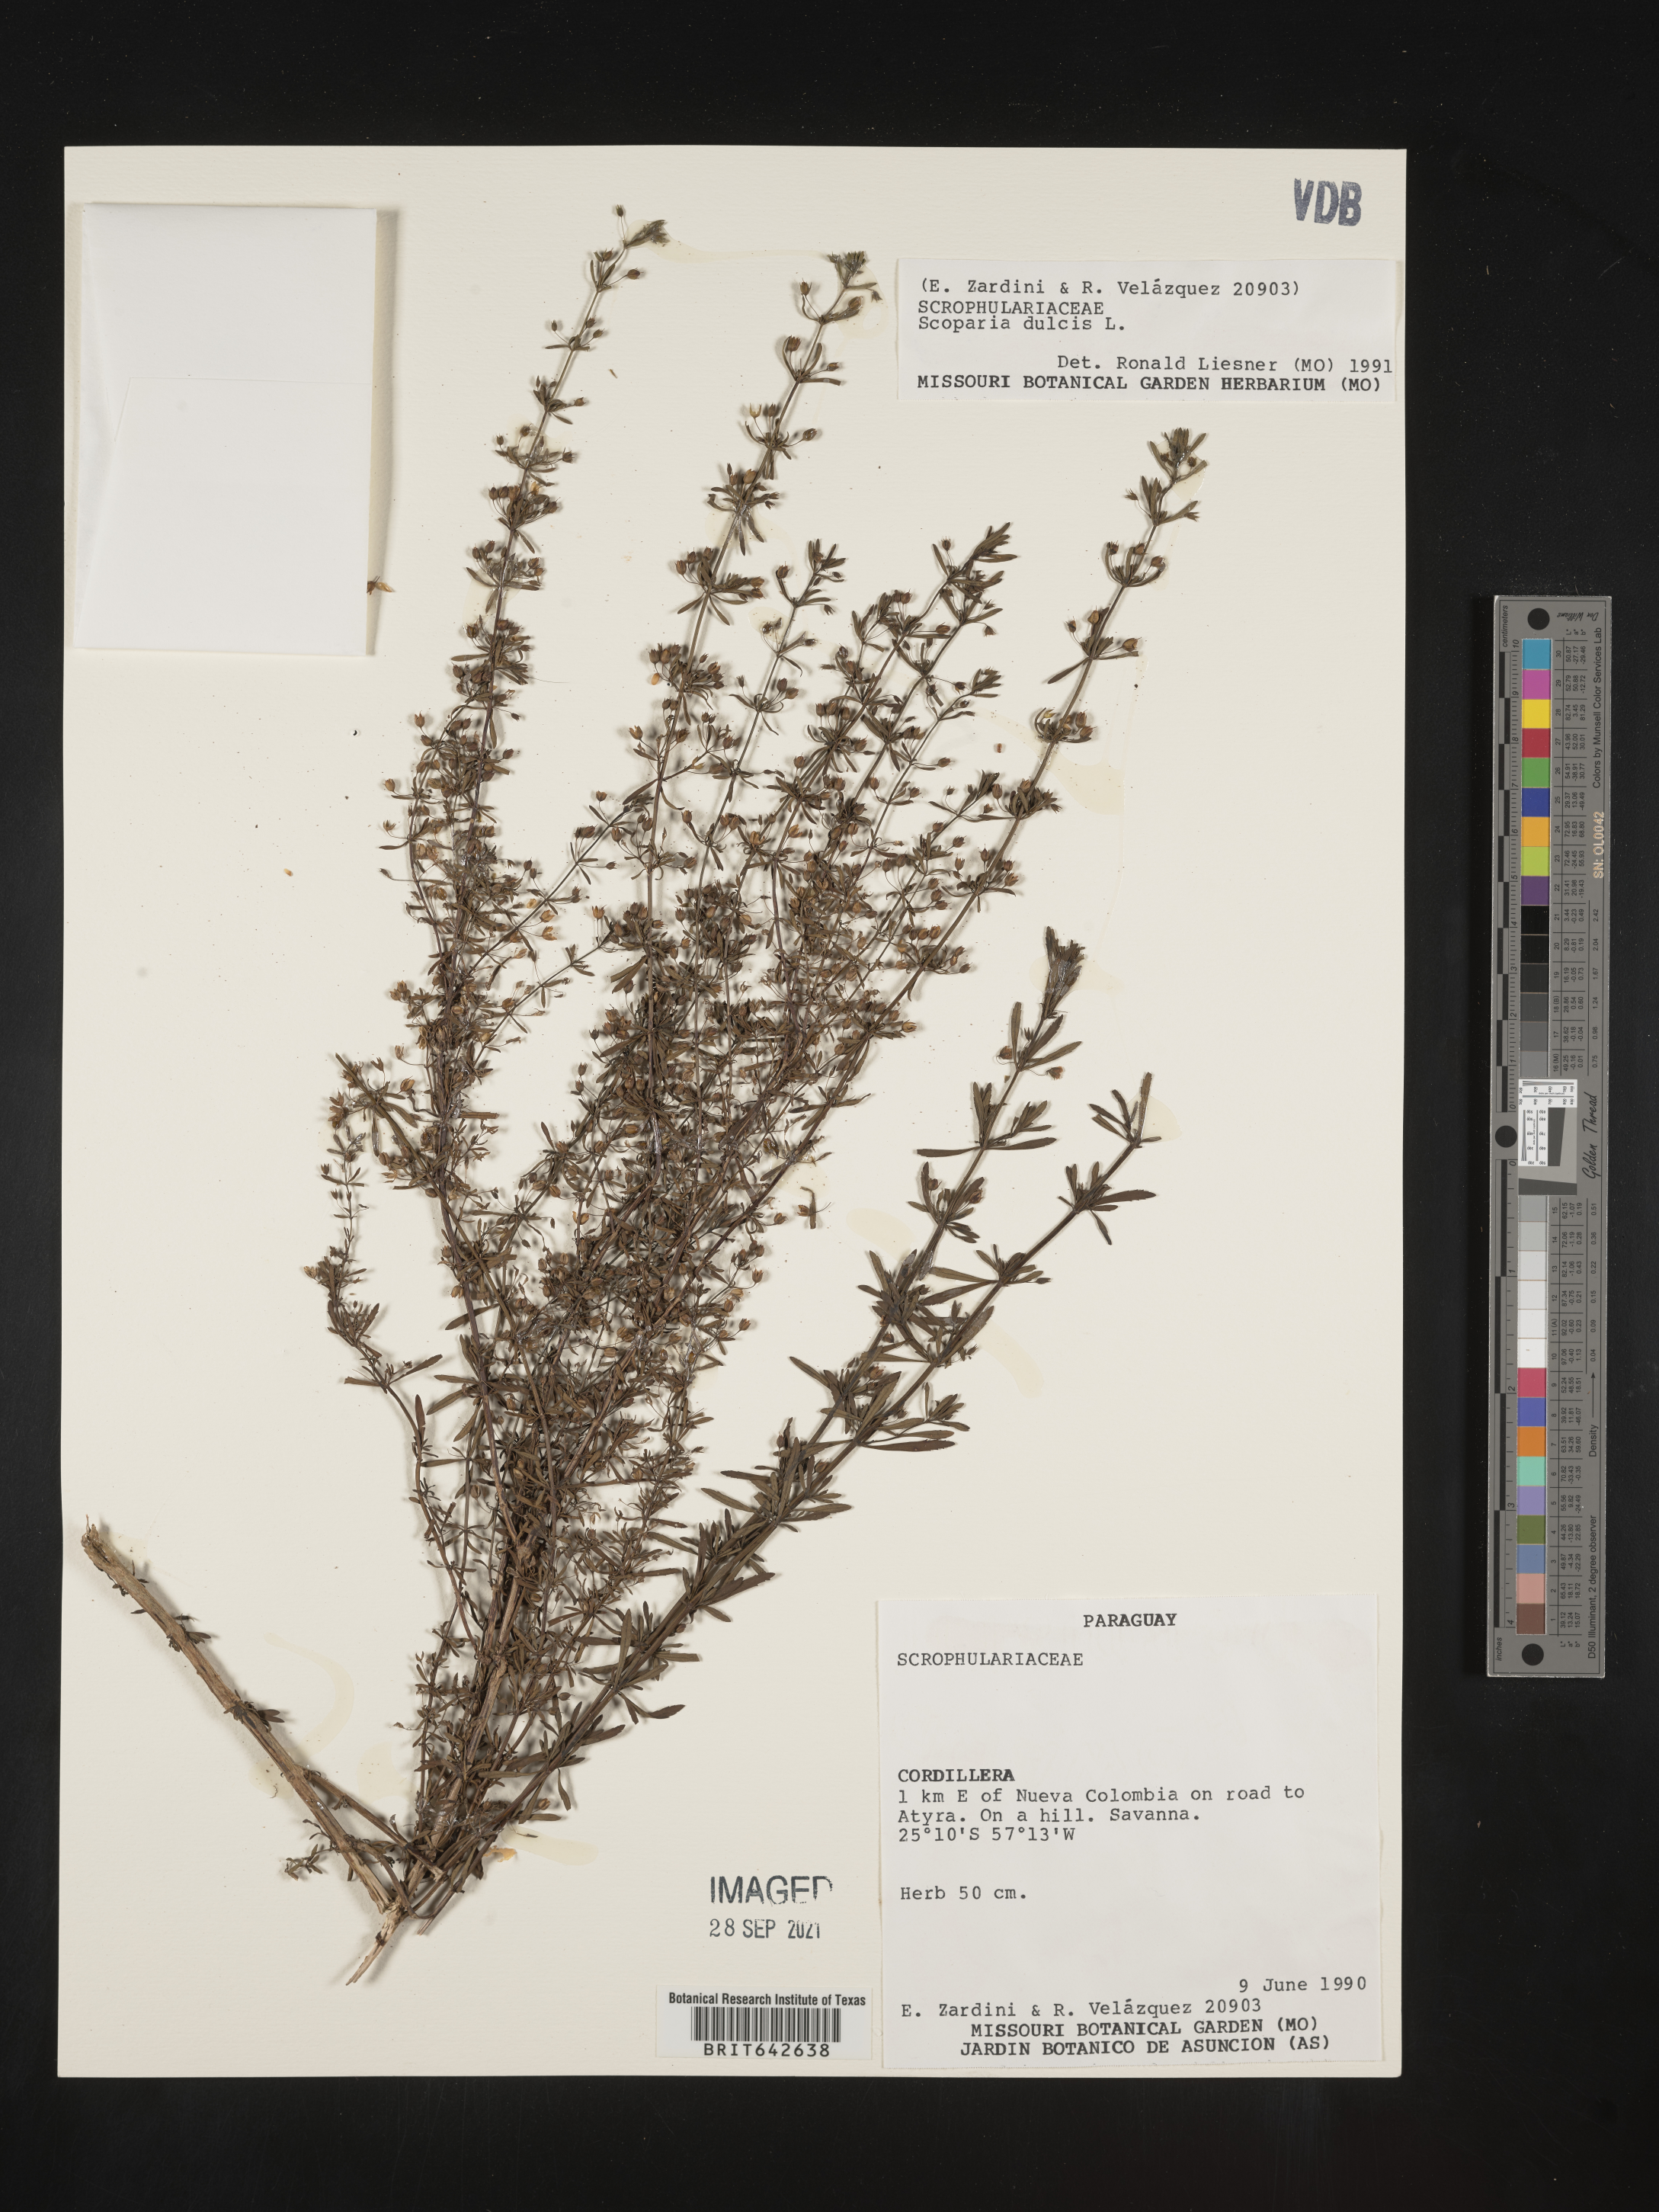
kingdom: Plantae
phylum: Tracheophyta
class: Magnoliopsida
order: Lamiales
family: Plantaginaceae
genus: Scoparia
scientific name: Scoparia
